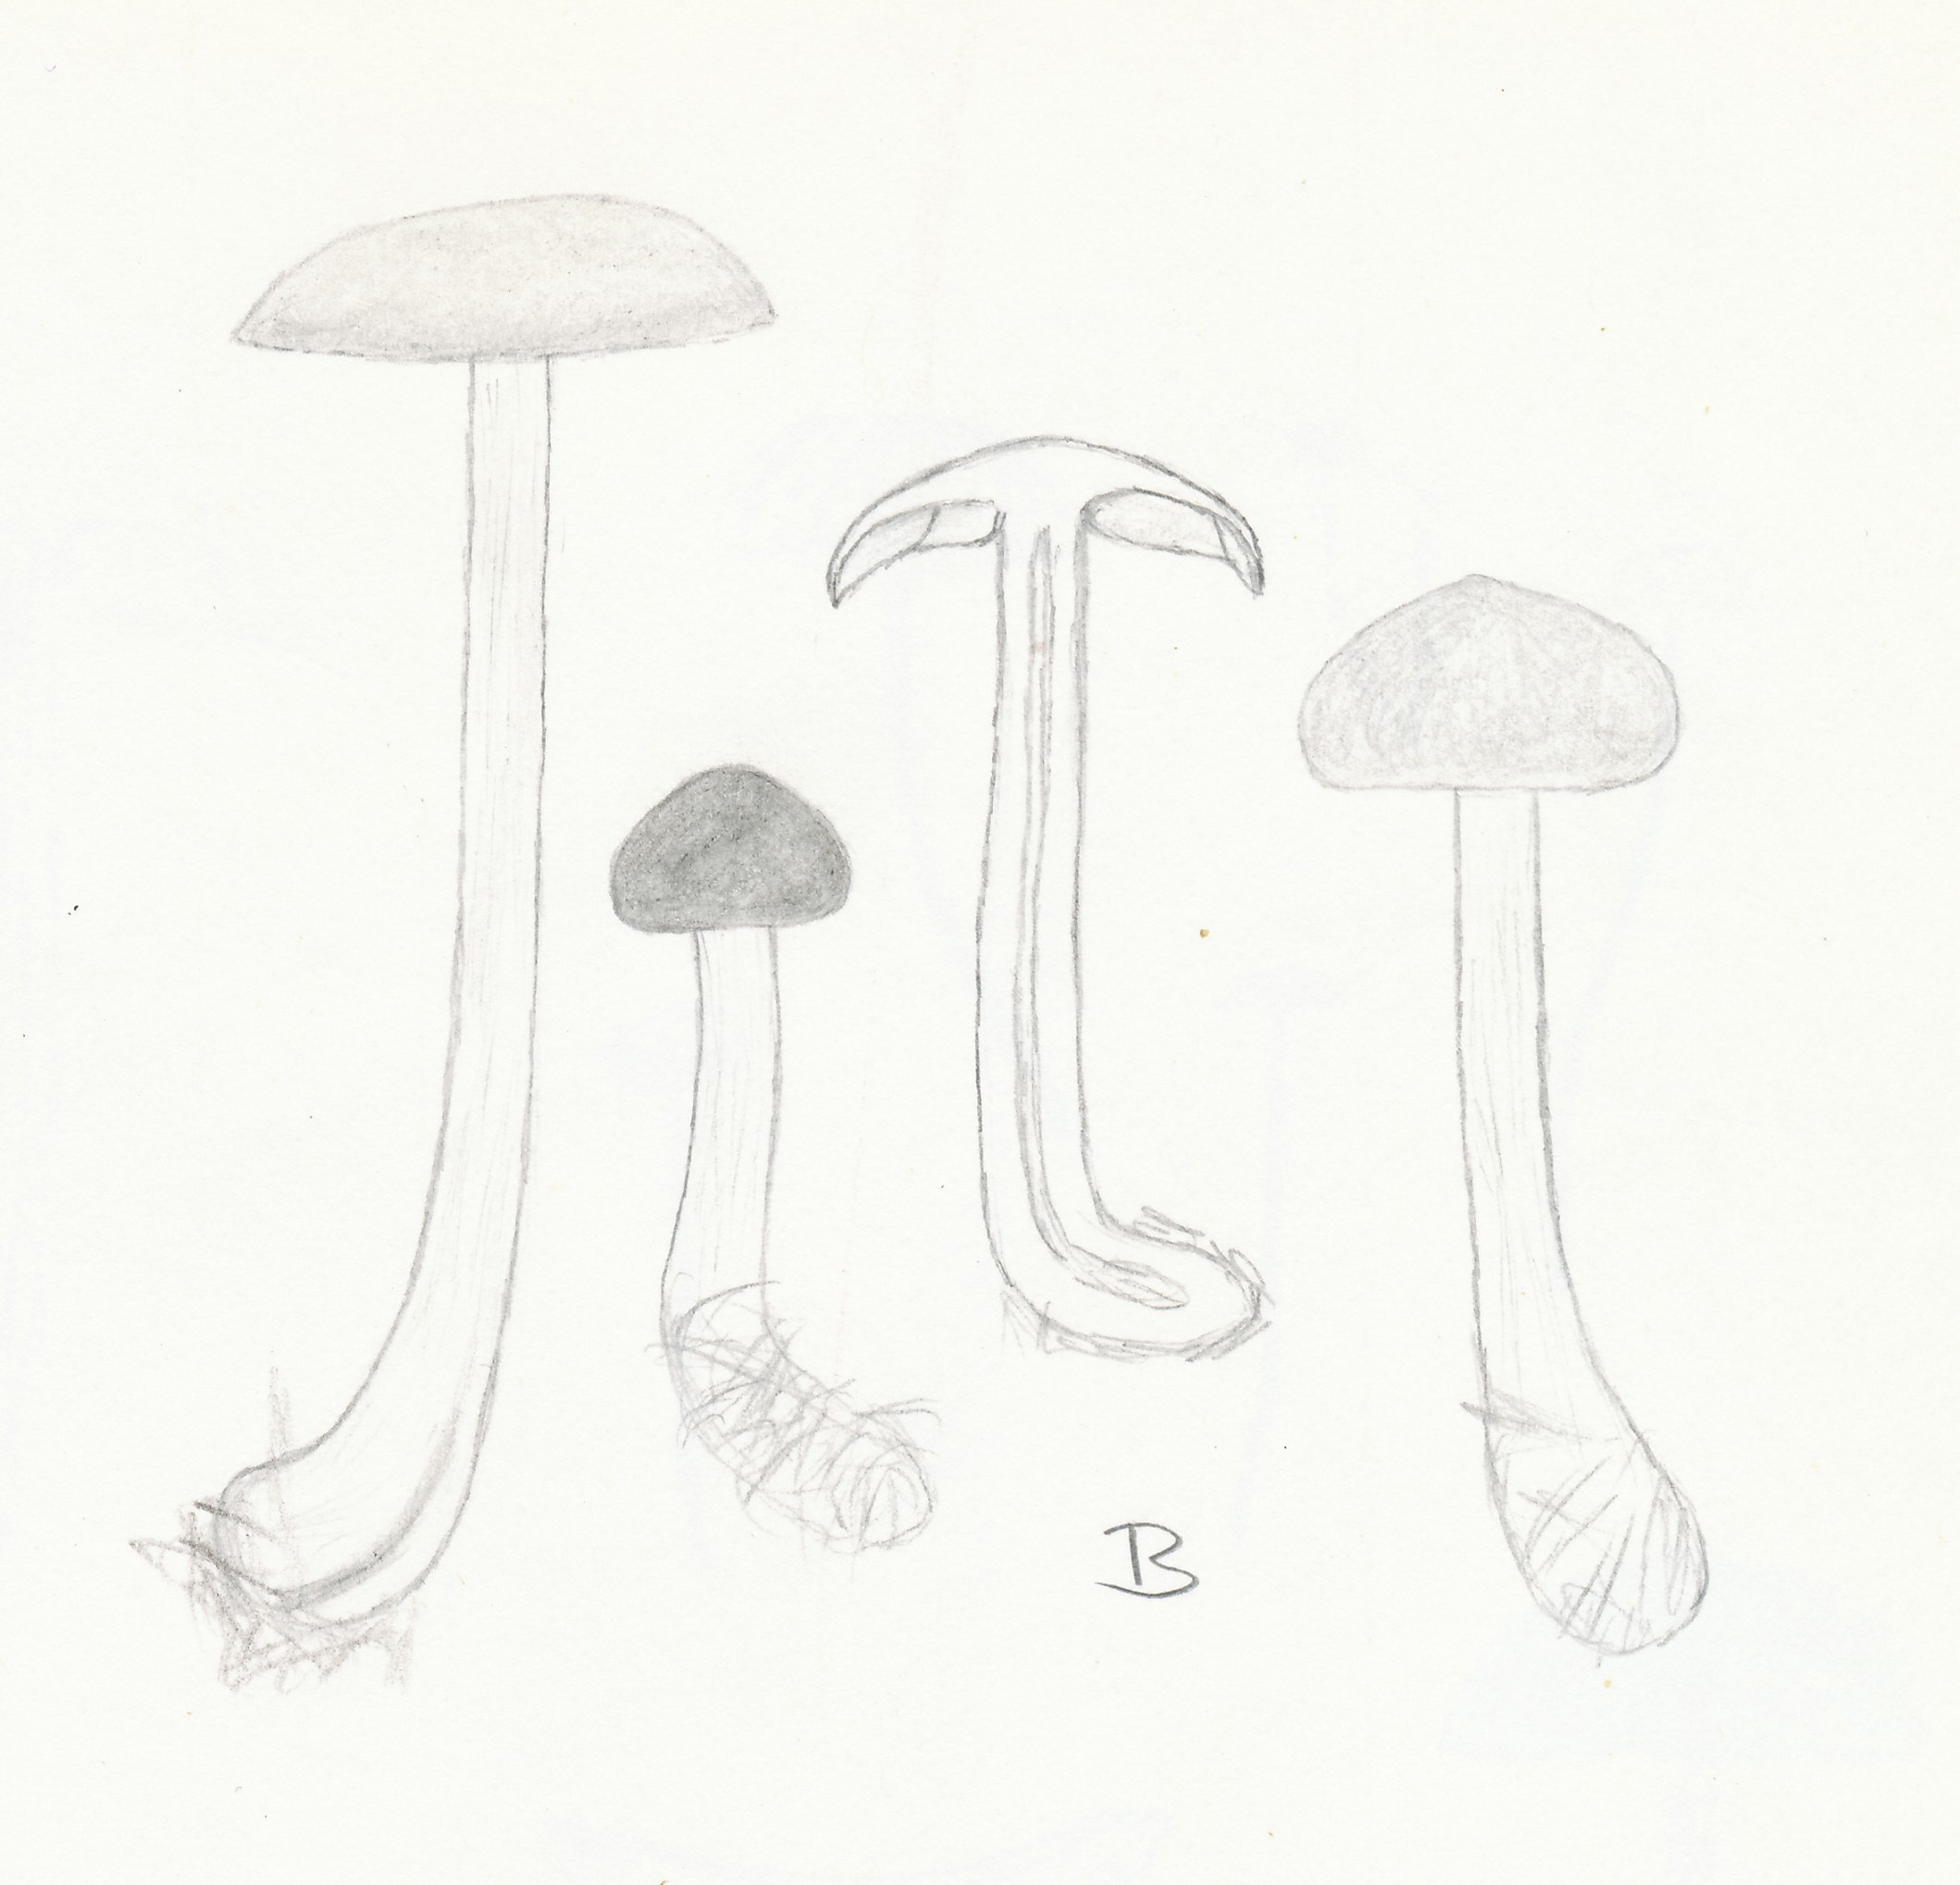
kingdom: Fungi
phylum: Basidiomycota
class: Agaricomycetes
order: Agaricales
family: Entolomataceae
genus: Entoloma
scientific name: Entoloma sepium
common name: slåen-rødblad
